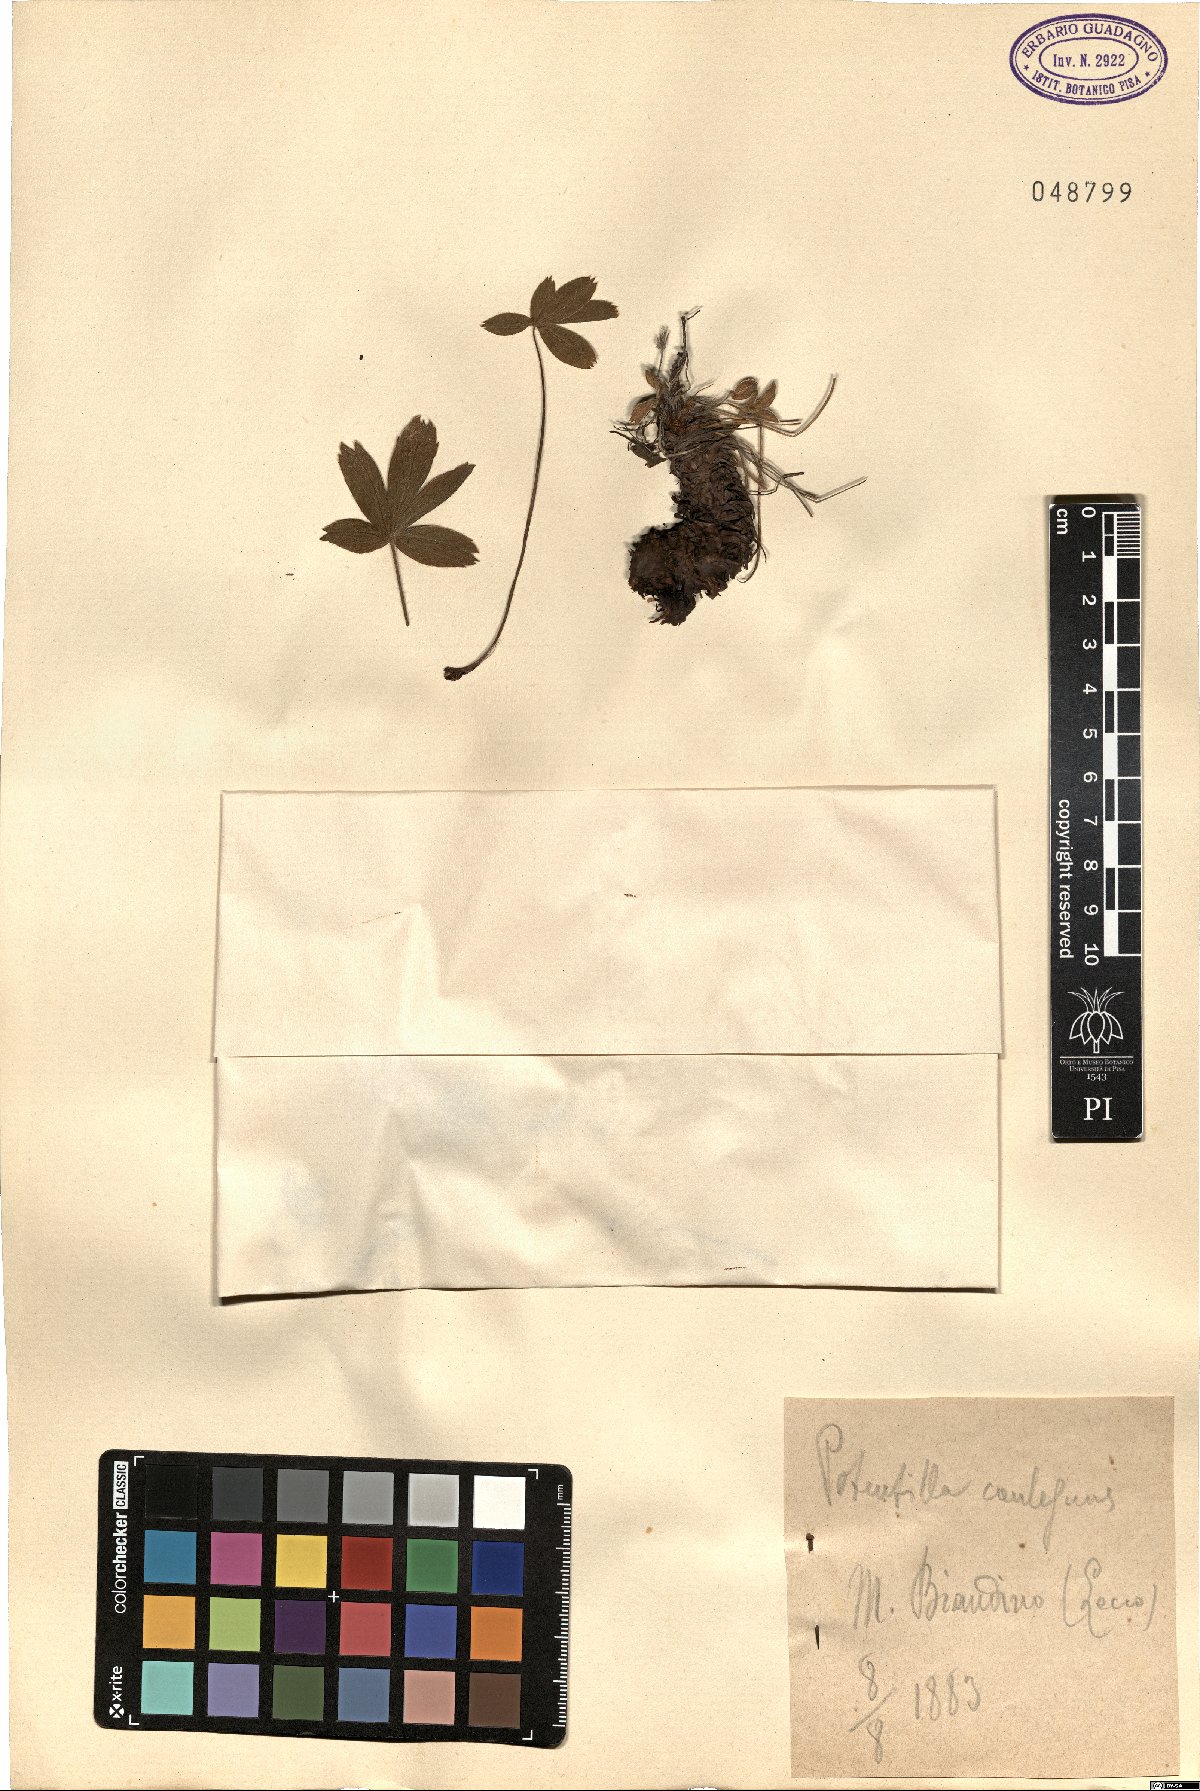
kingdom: Plantae
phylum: Tracheophyta
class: Magnoliopsida
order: Rosales
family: Rosaceae
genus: Potentilla
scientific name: Potentilla caulescens
